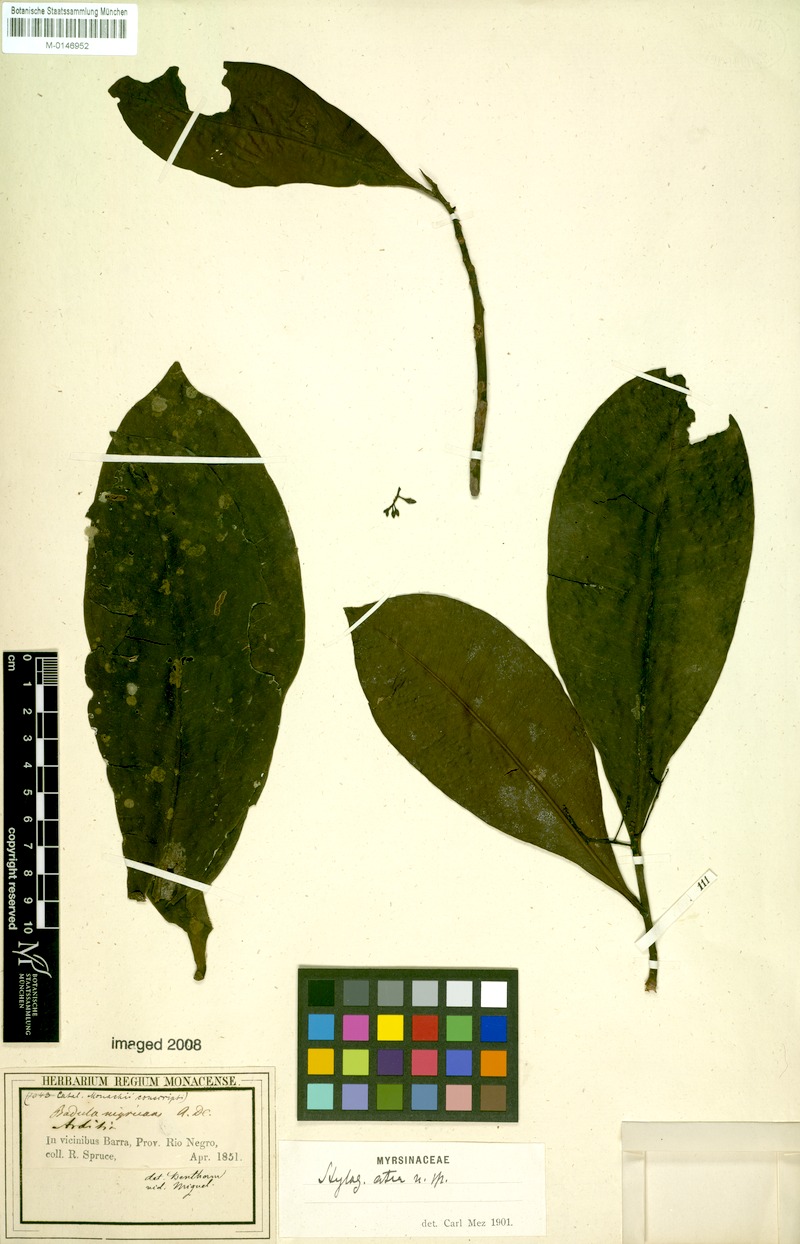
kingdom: Plantae
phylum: Tracheophyta
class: Magnoliopsida
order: Ericales
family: Primulaceae
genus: Stylogyne
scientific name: Stylogyne atra
